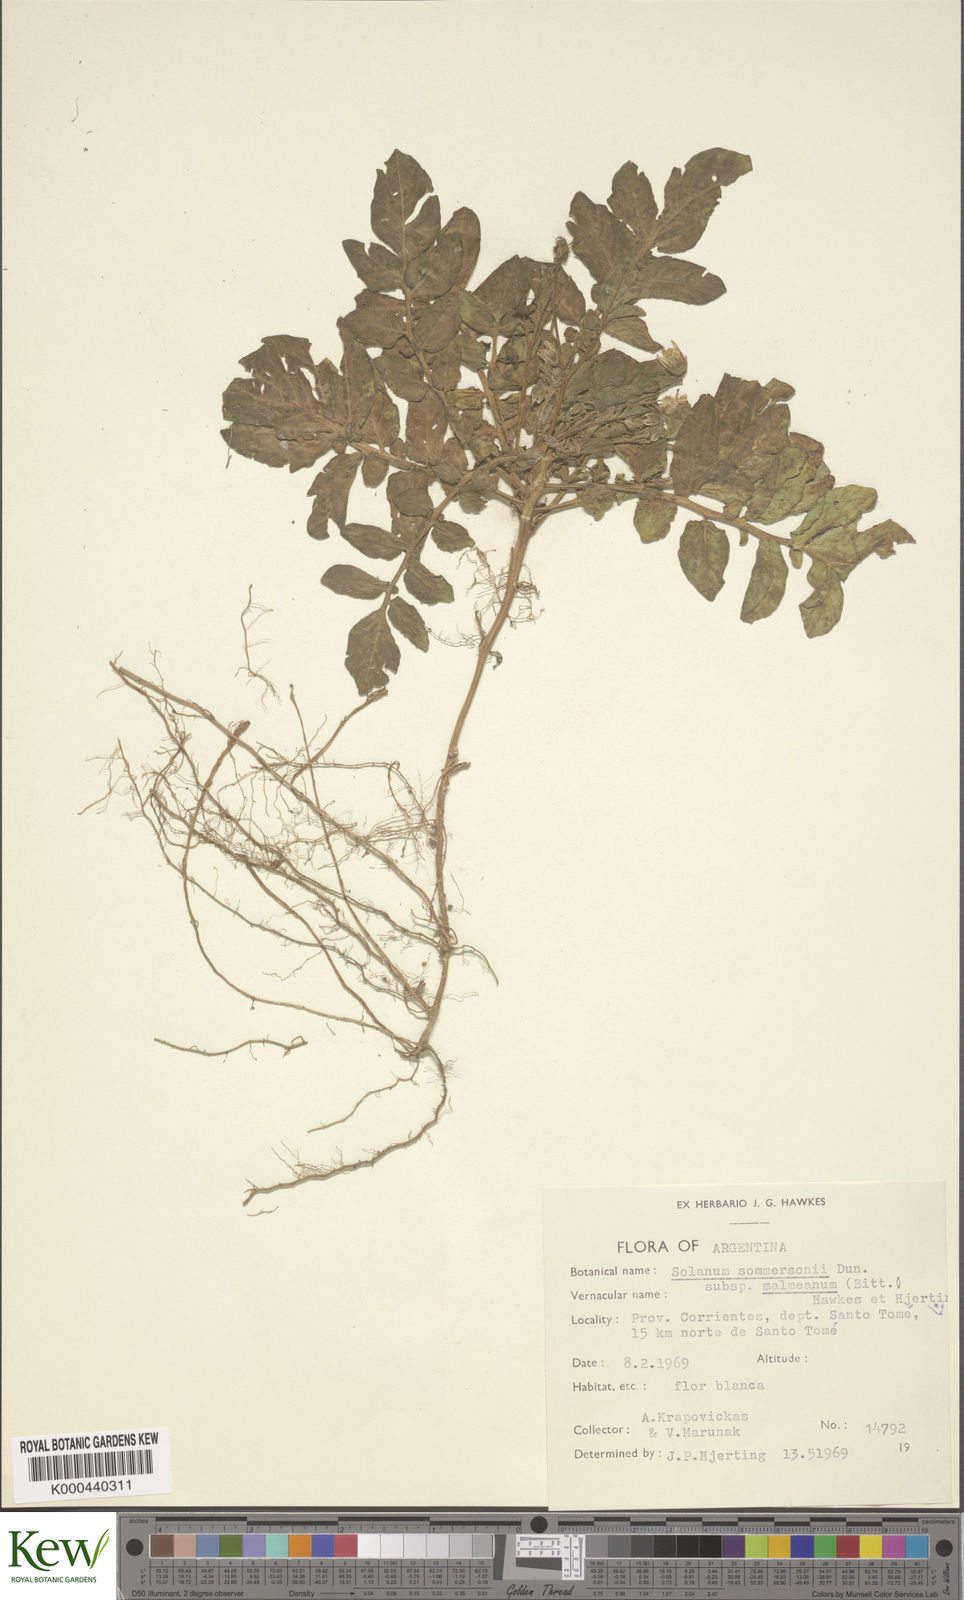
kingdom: Plantae
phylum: Tracheophyta
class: Magnoliopsida
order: Solanales
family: Solanaceae
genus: Solanum
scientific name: Solanum
